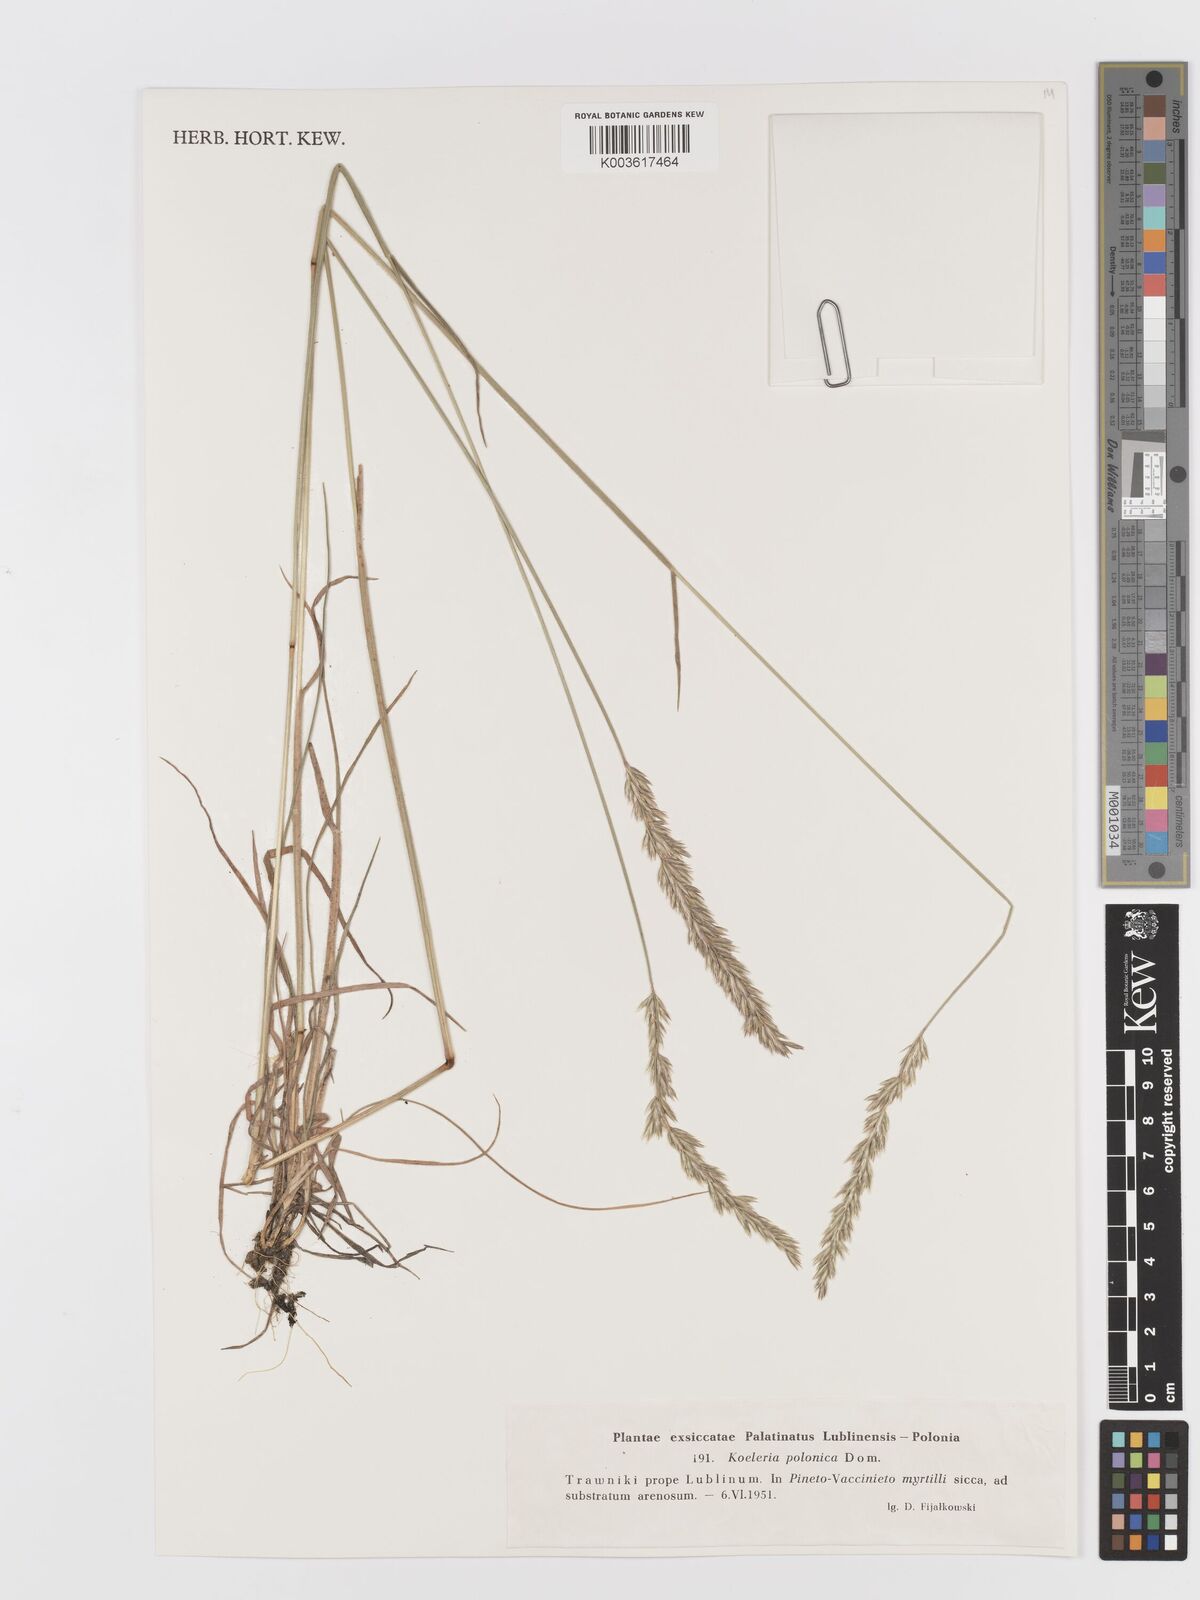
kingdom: Plantae
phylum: Tracheophyta
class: Liliopsida
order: Poales
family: Poaceae
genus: Koeleria
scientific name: Koeleria pyramidata
